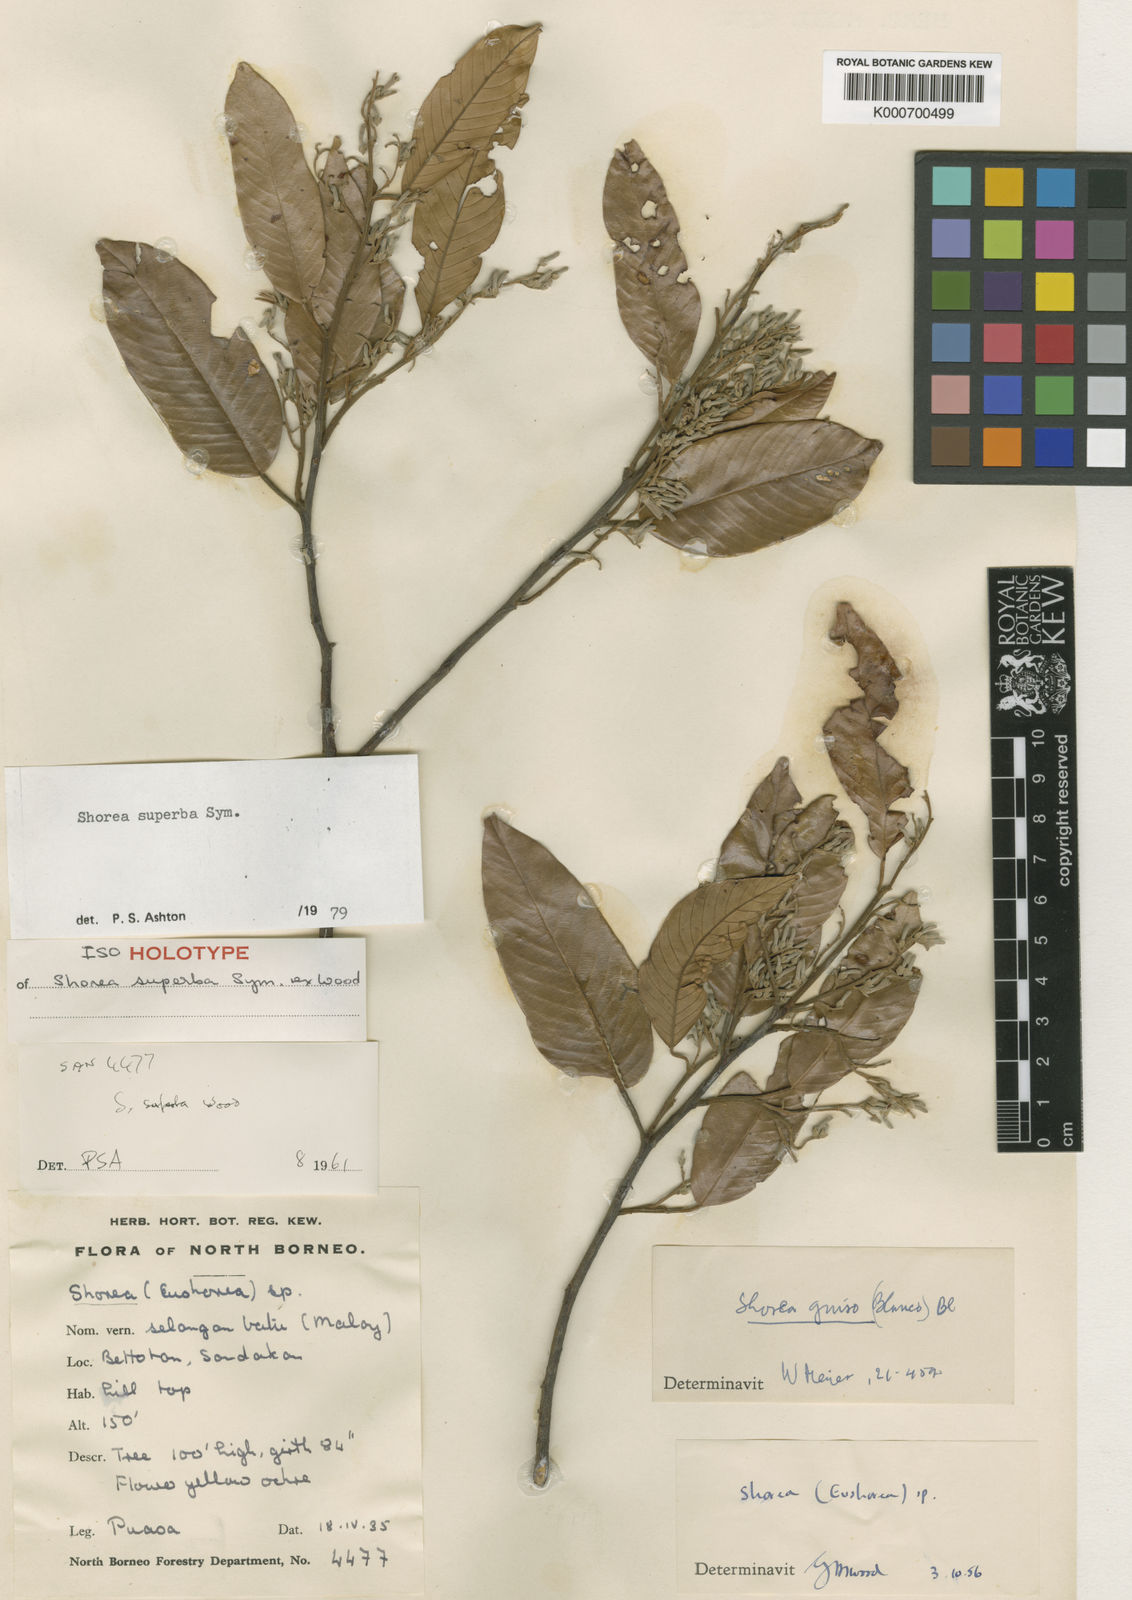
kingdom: Plantae
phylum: Tracheophyta
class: Magnoliopsida
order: Malvales
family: Dipterocarpaceae
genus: Shorea
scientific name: Shorea superba
